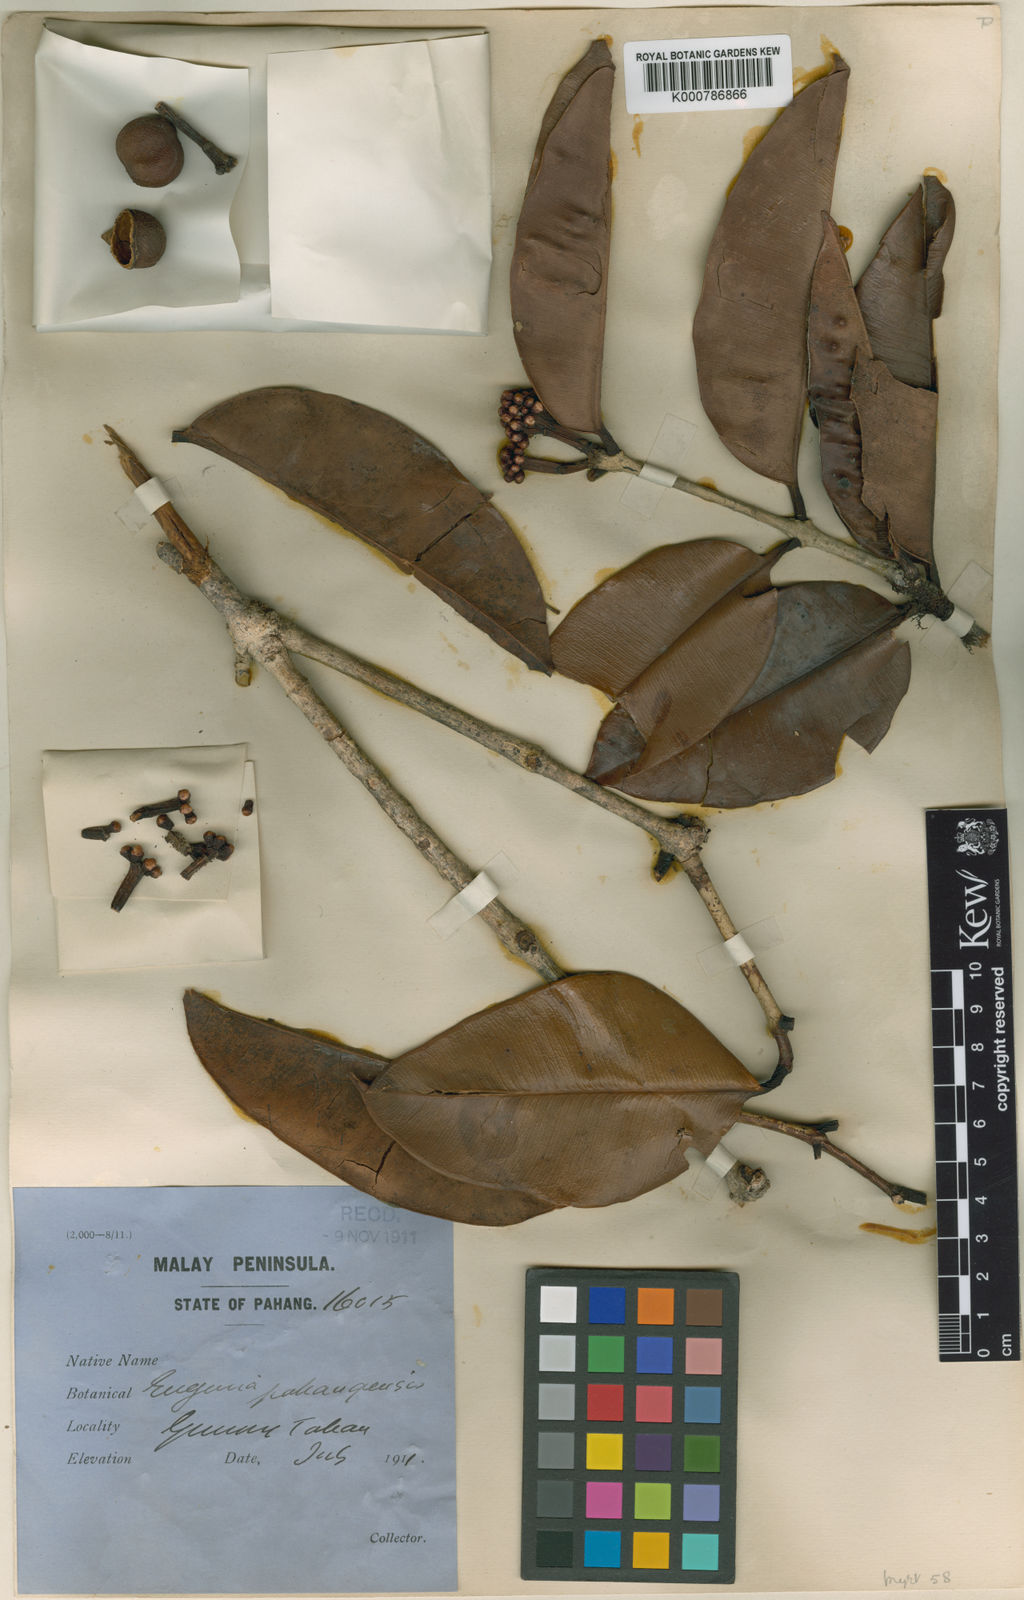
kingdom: Plantae
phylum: Tracheophyta
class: Magnoliopsida
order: Myrtales
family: Myrtaceae
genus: Syzygium
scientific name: Syzygium pahangense
